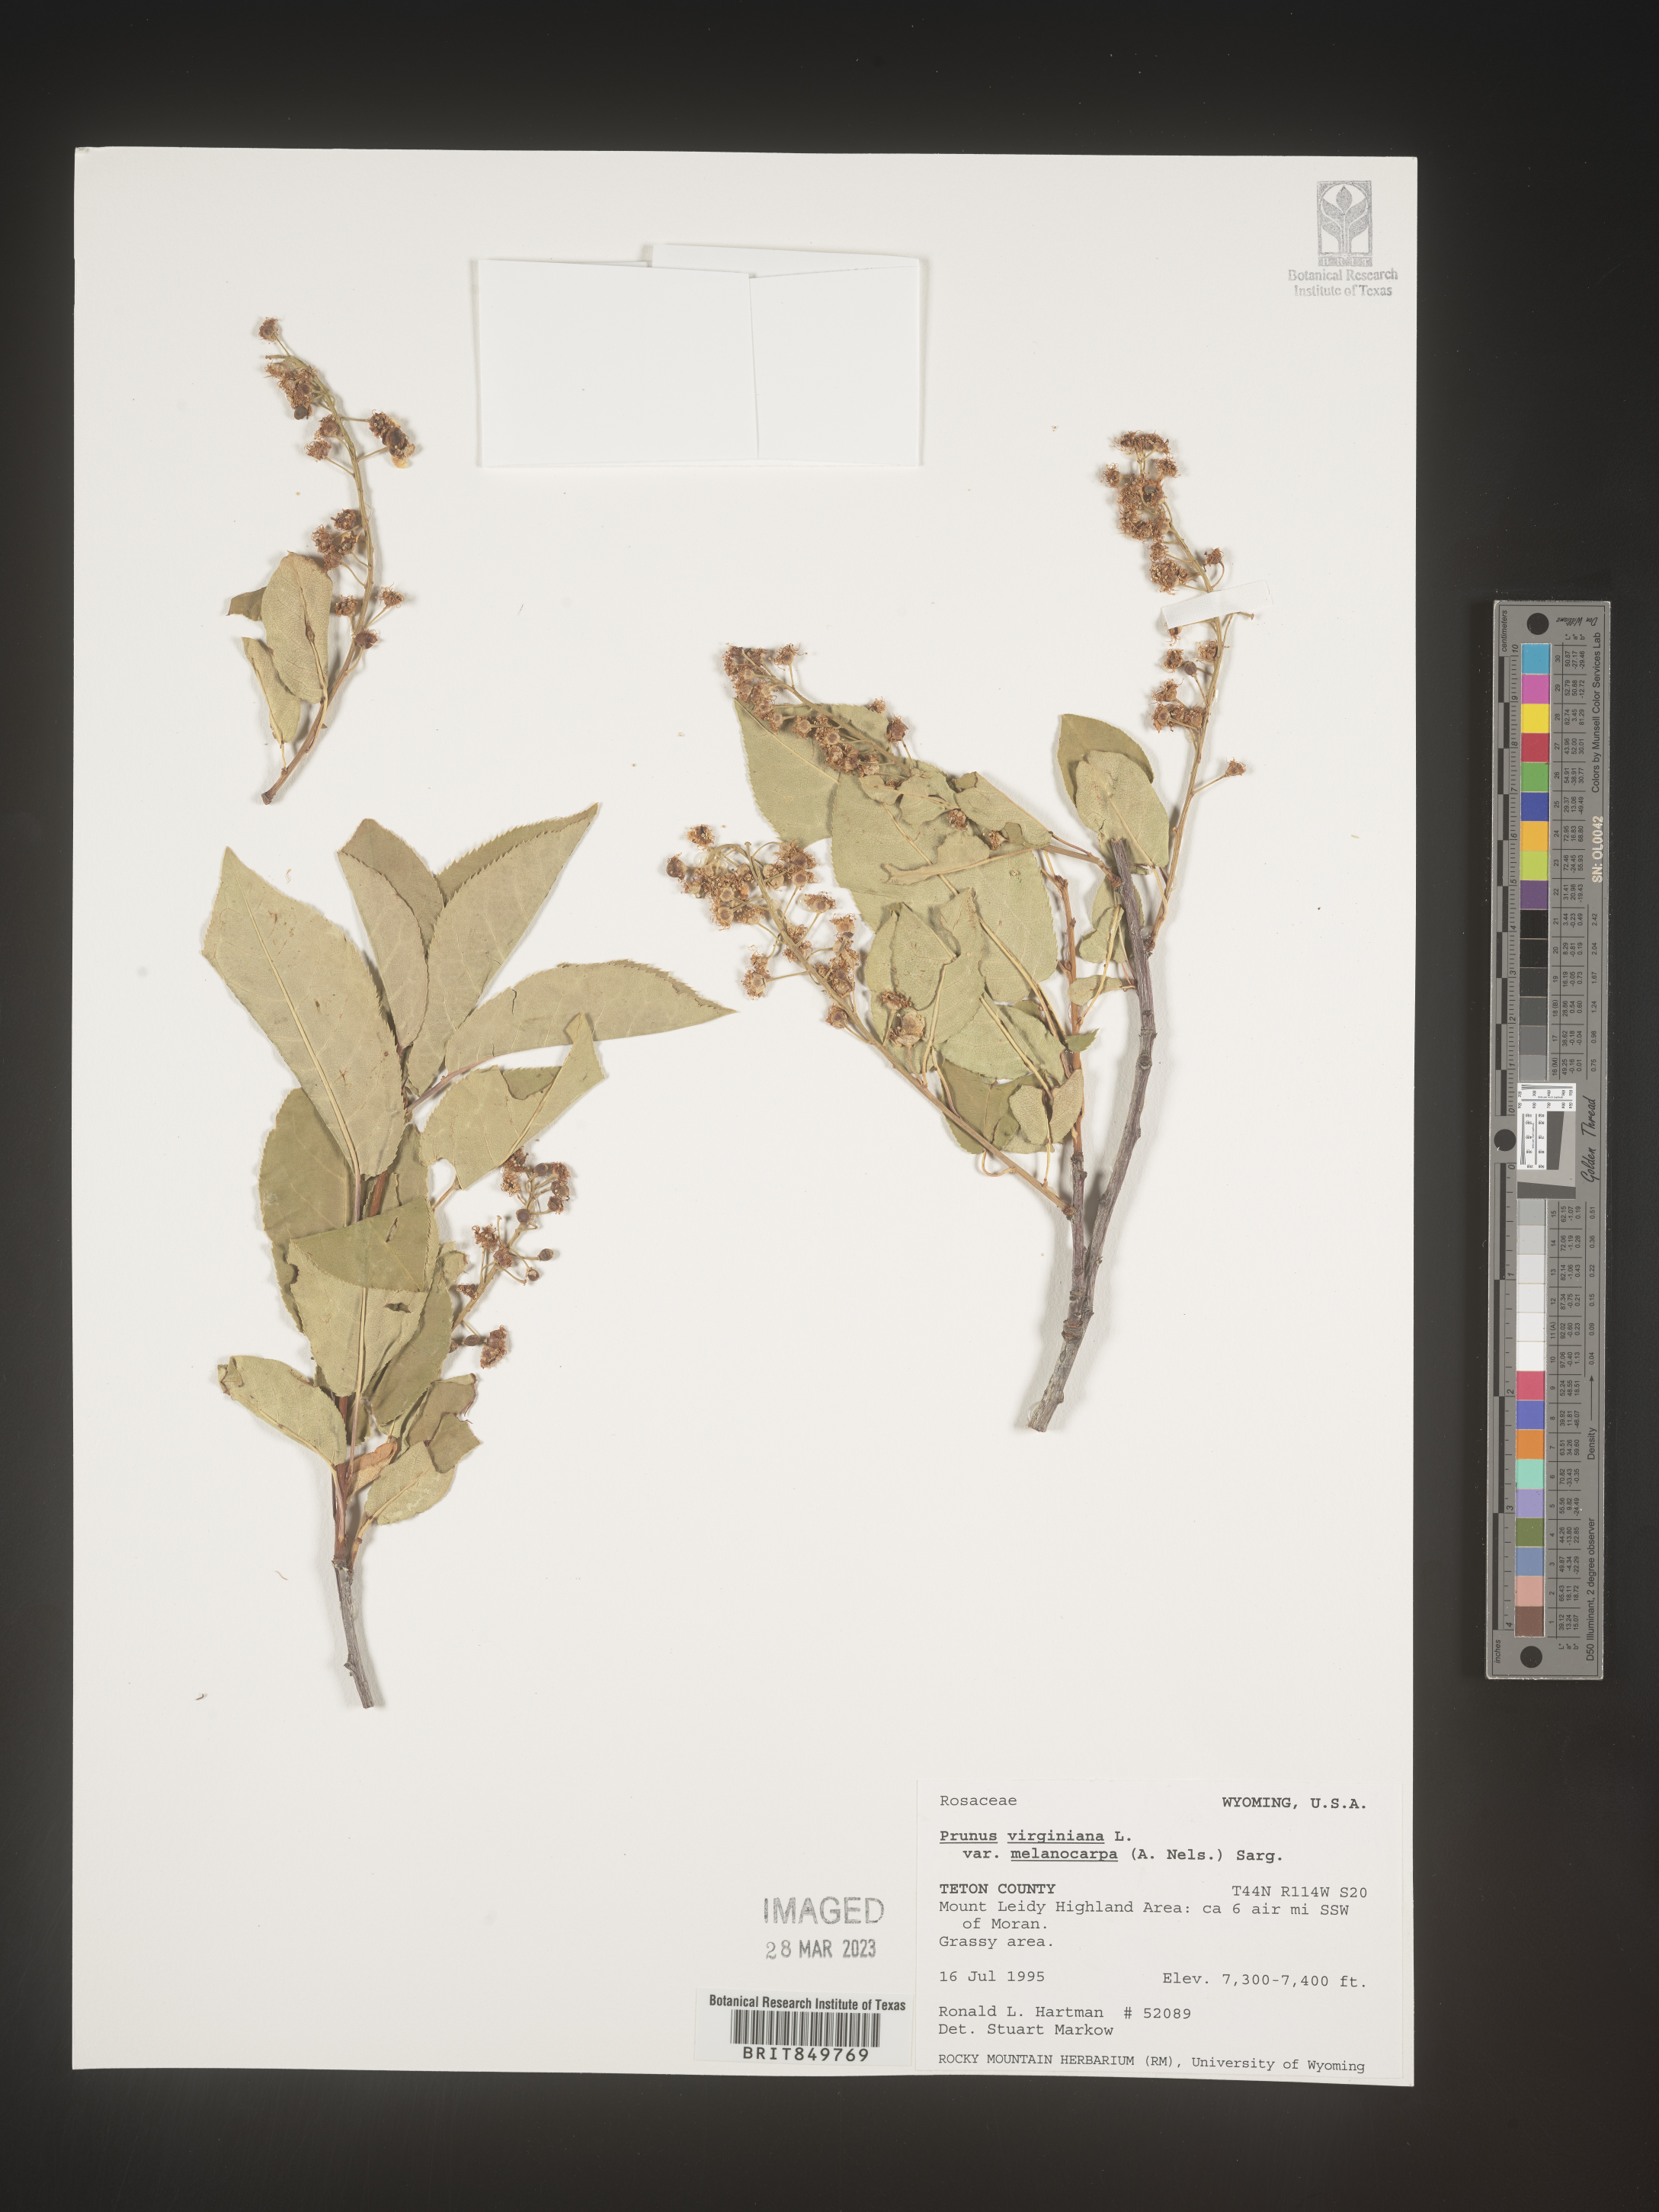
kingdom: Plantae
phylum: Tracheophyta
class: Magnoliopsida
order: Rosales
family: Rosaceae
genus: Prunus
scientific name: Prunus virginiana
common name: Chokecherry
